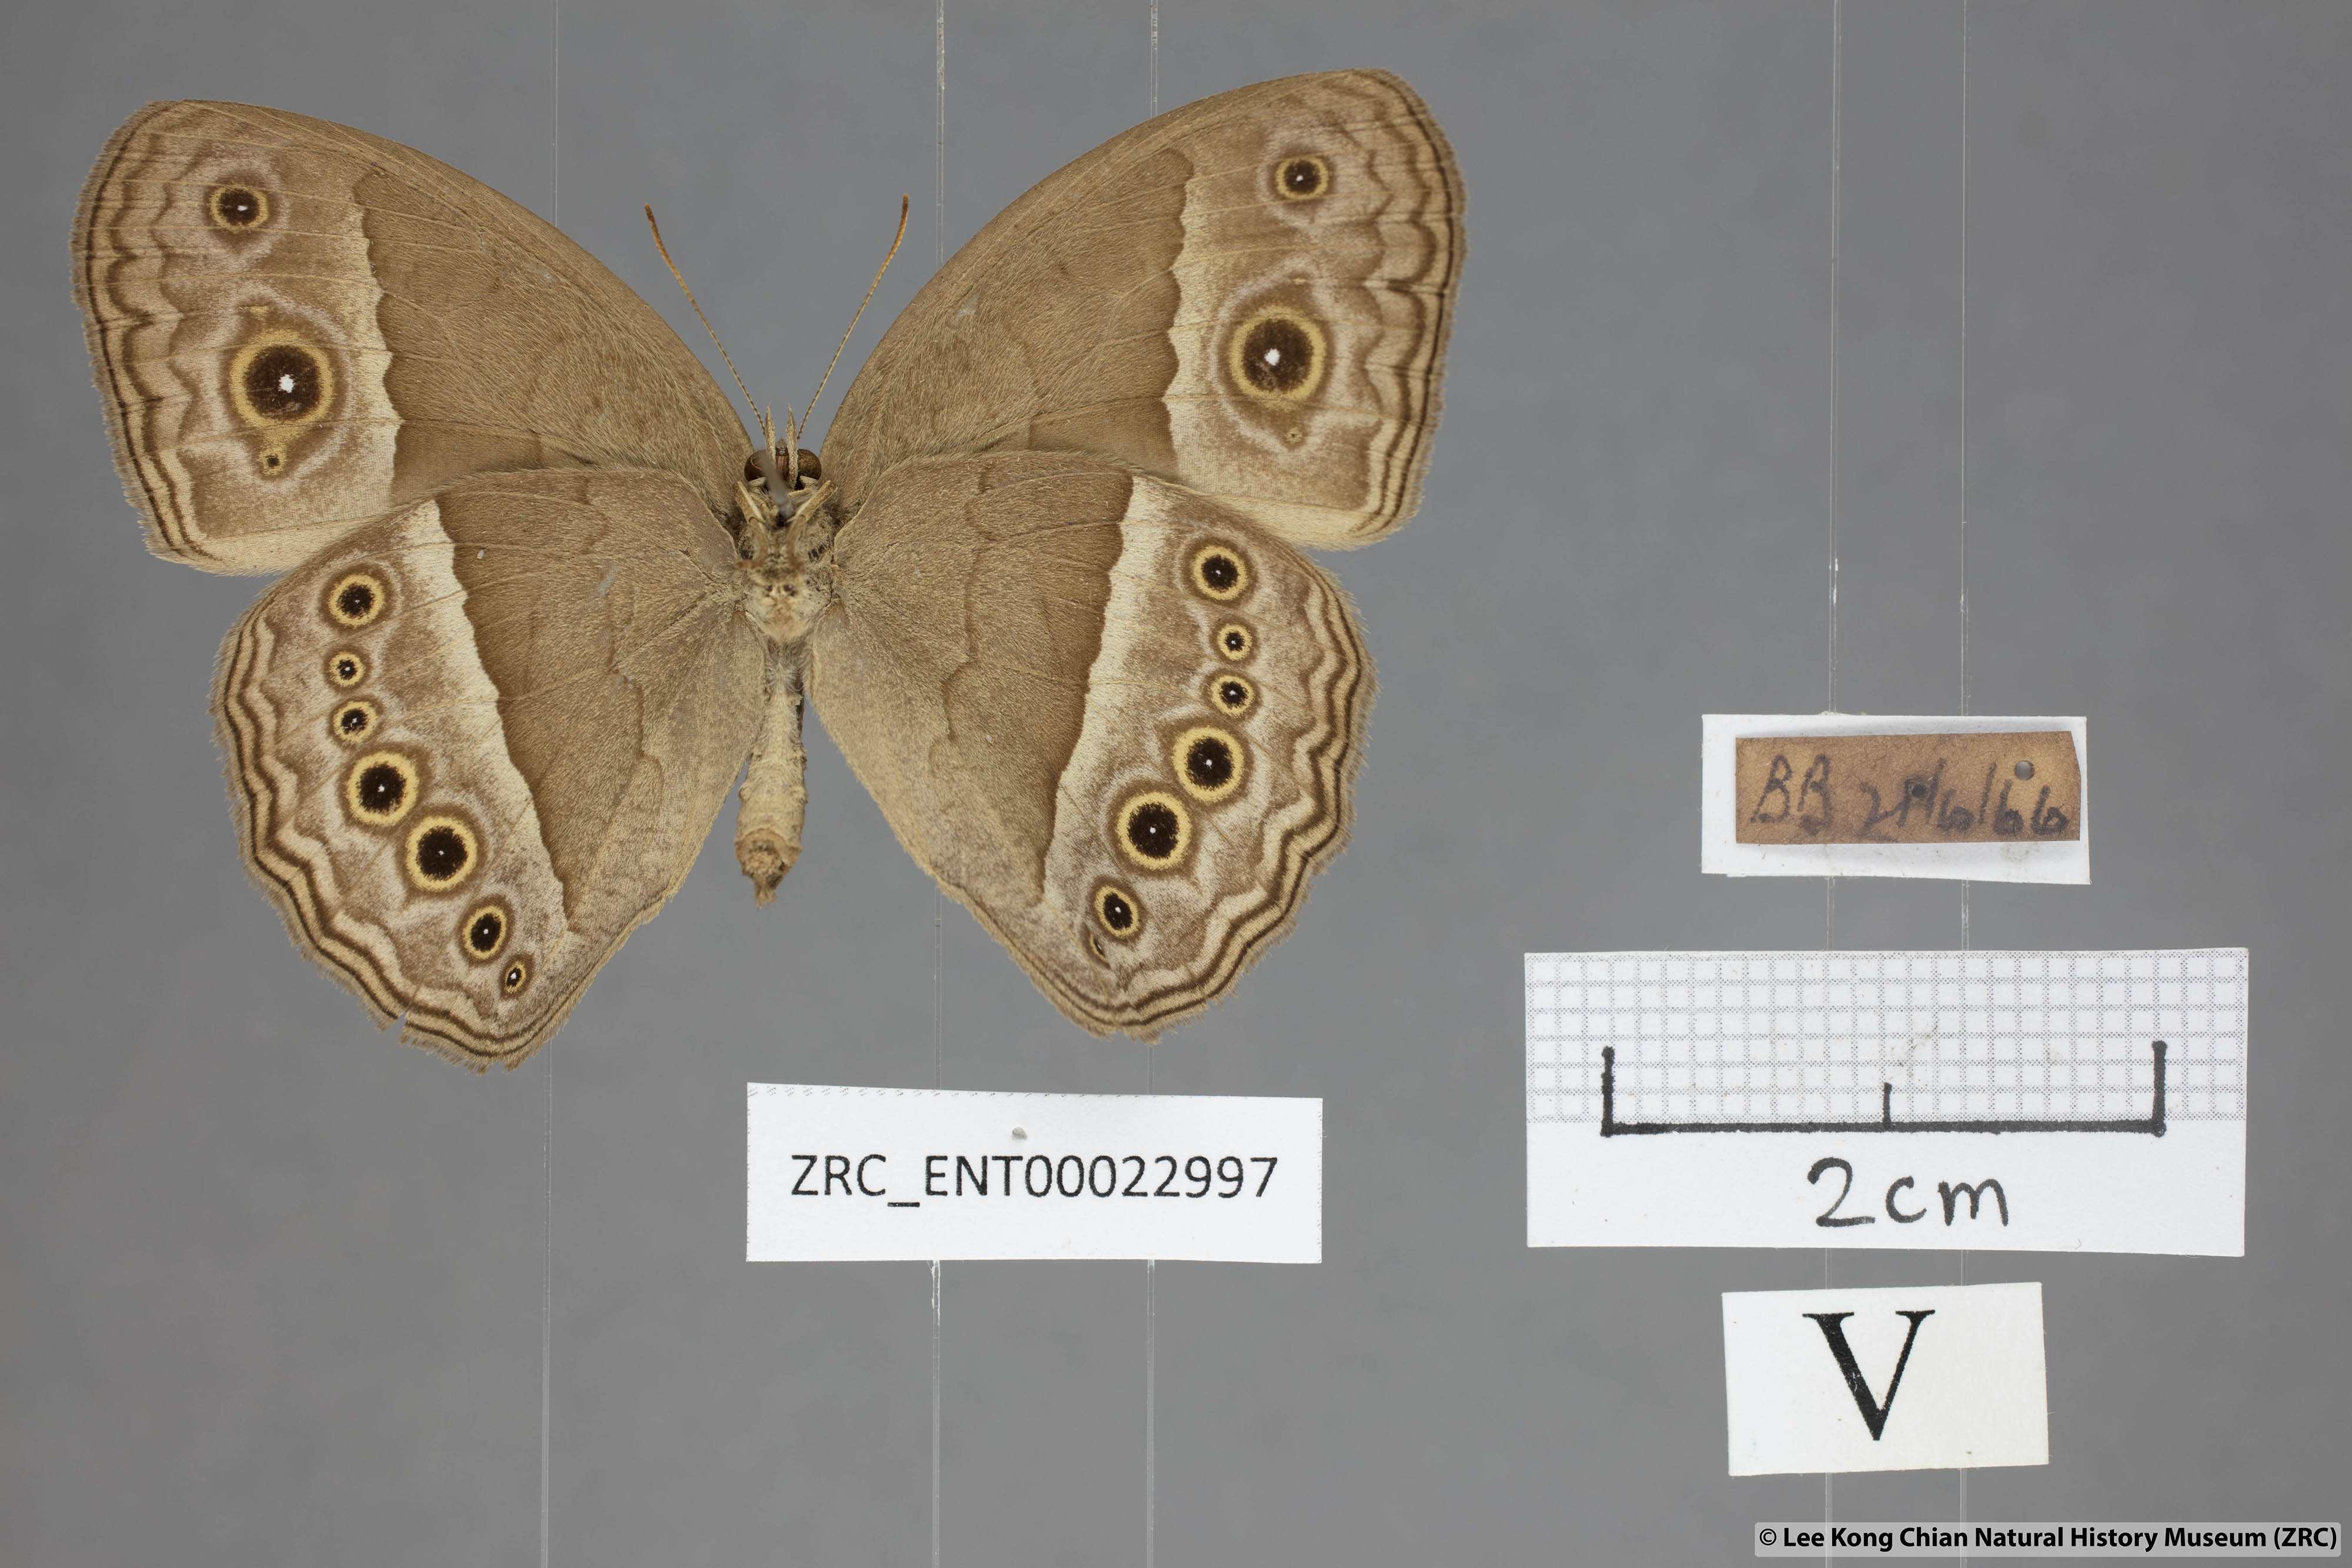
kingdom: Animalia
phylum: Arthropoda
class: Insecta
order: Lepidoptera
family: Nymphalidae
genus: Mycalesis
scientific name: Mycalesis perseoides
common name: Burmese bushbrown
